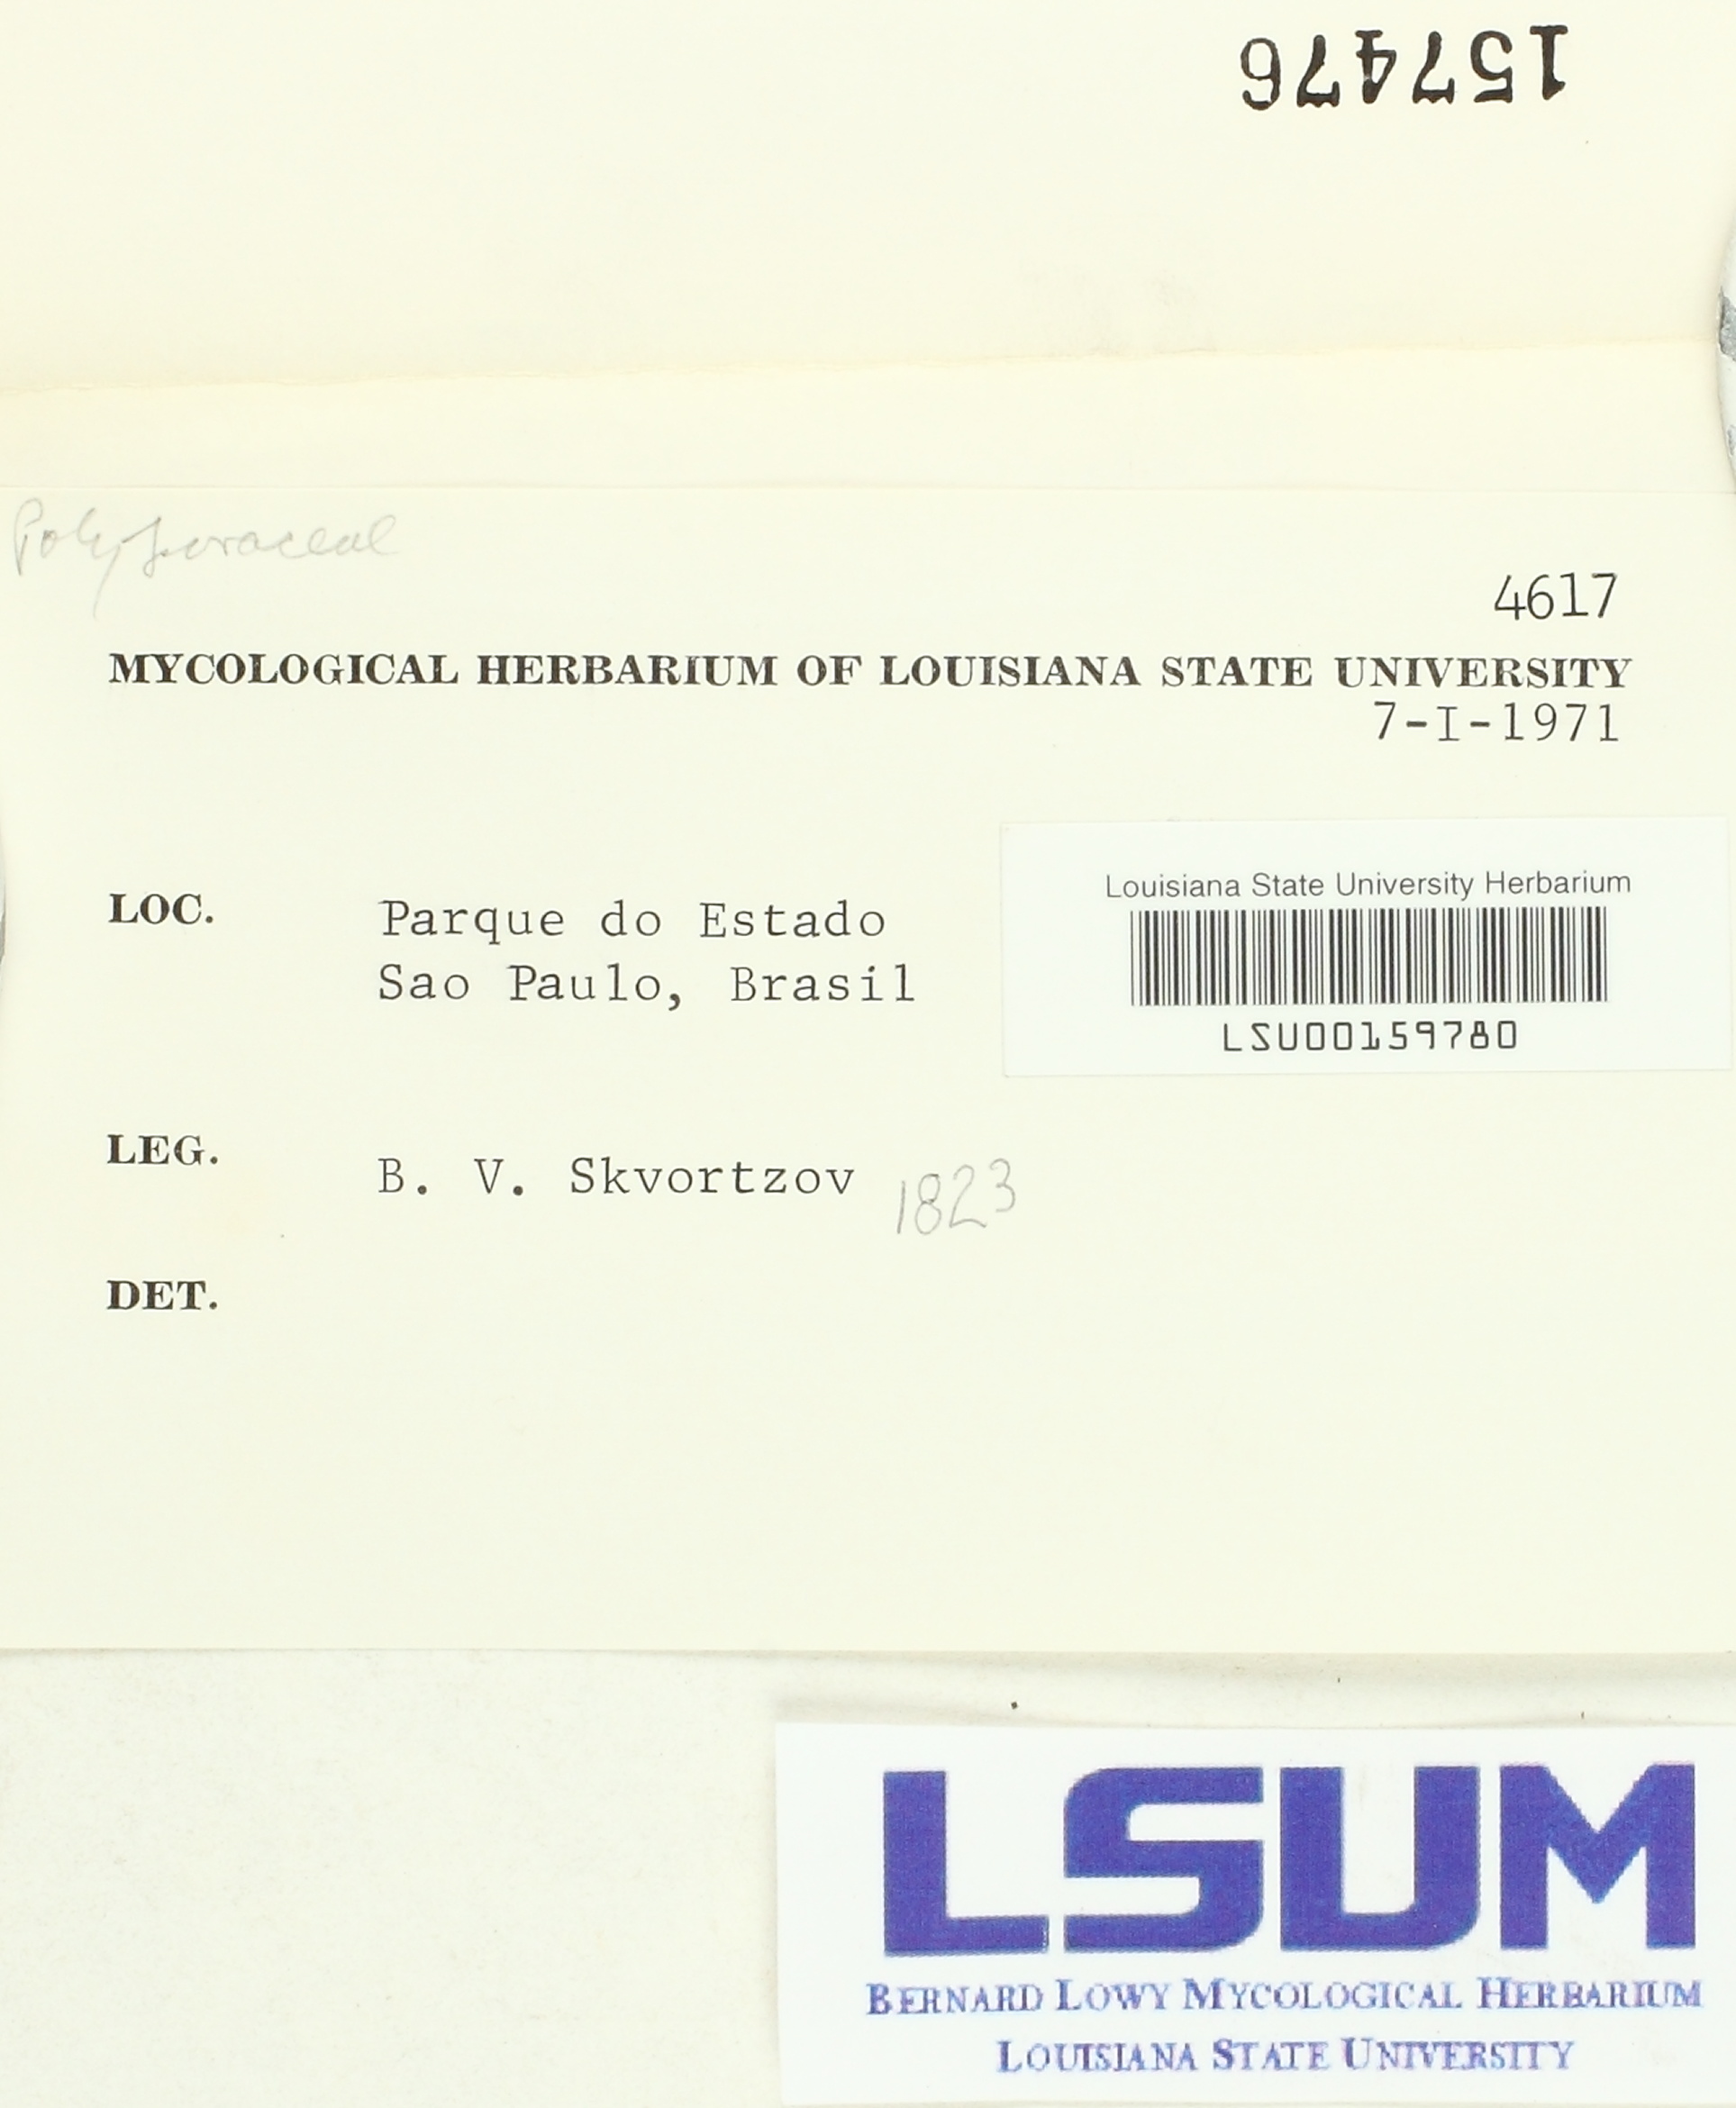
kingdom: Fungi
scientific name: Fungi
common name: Fungi
